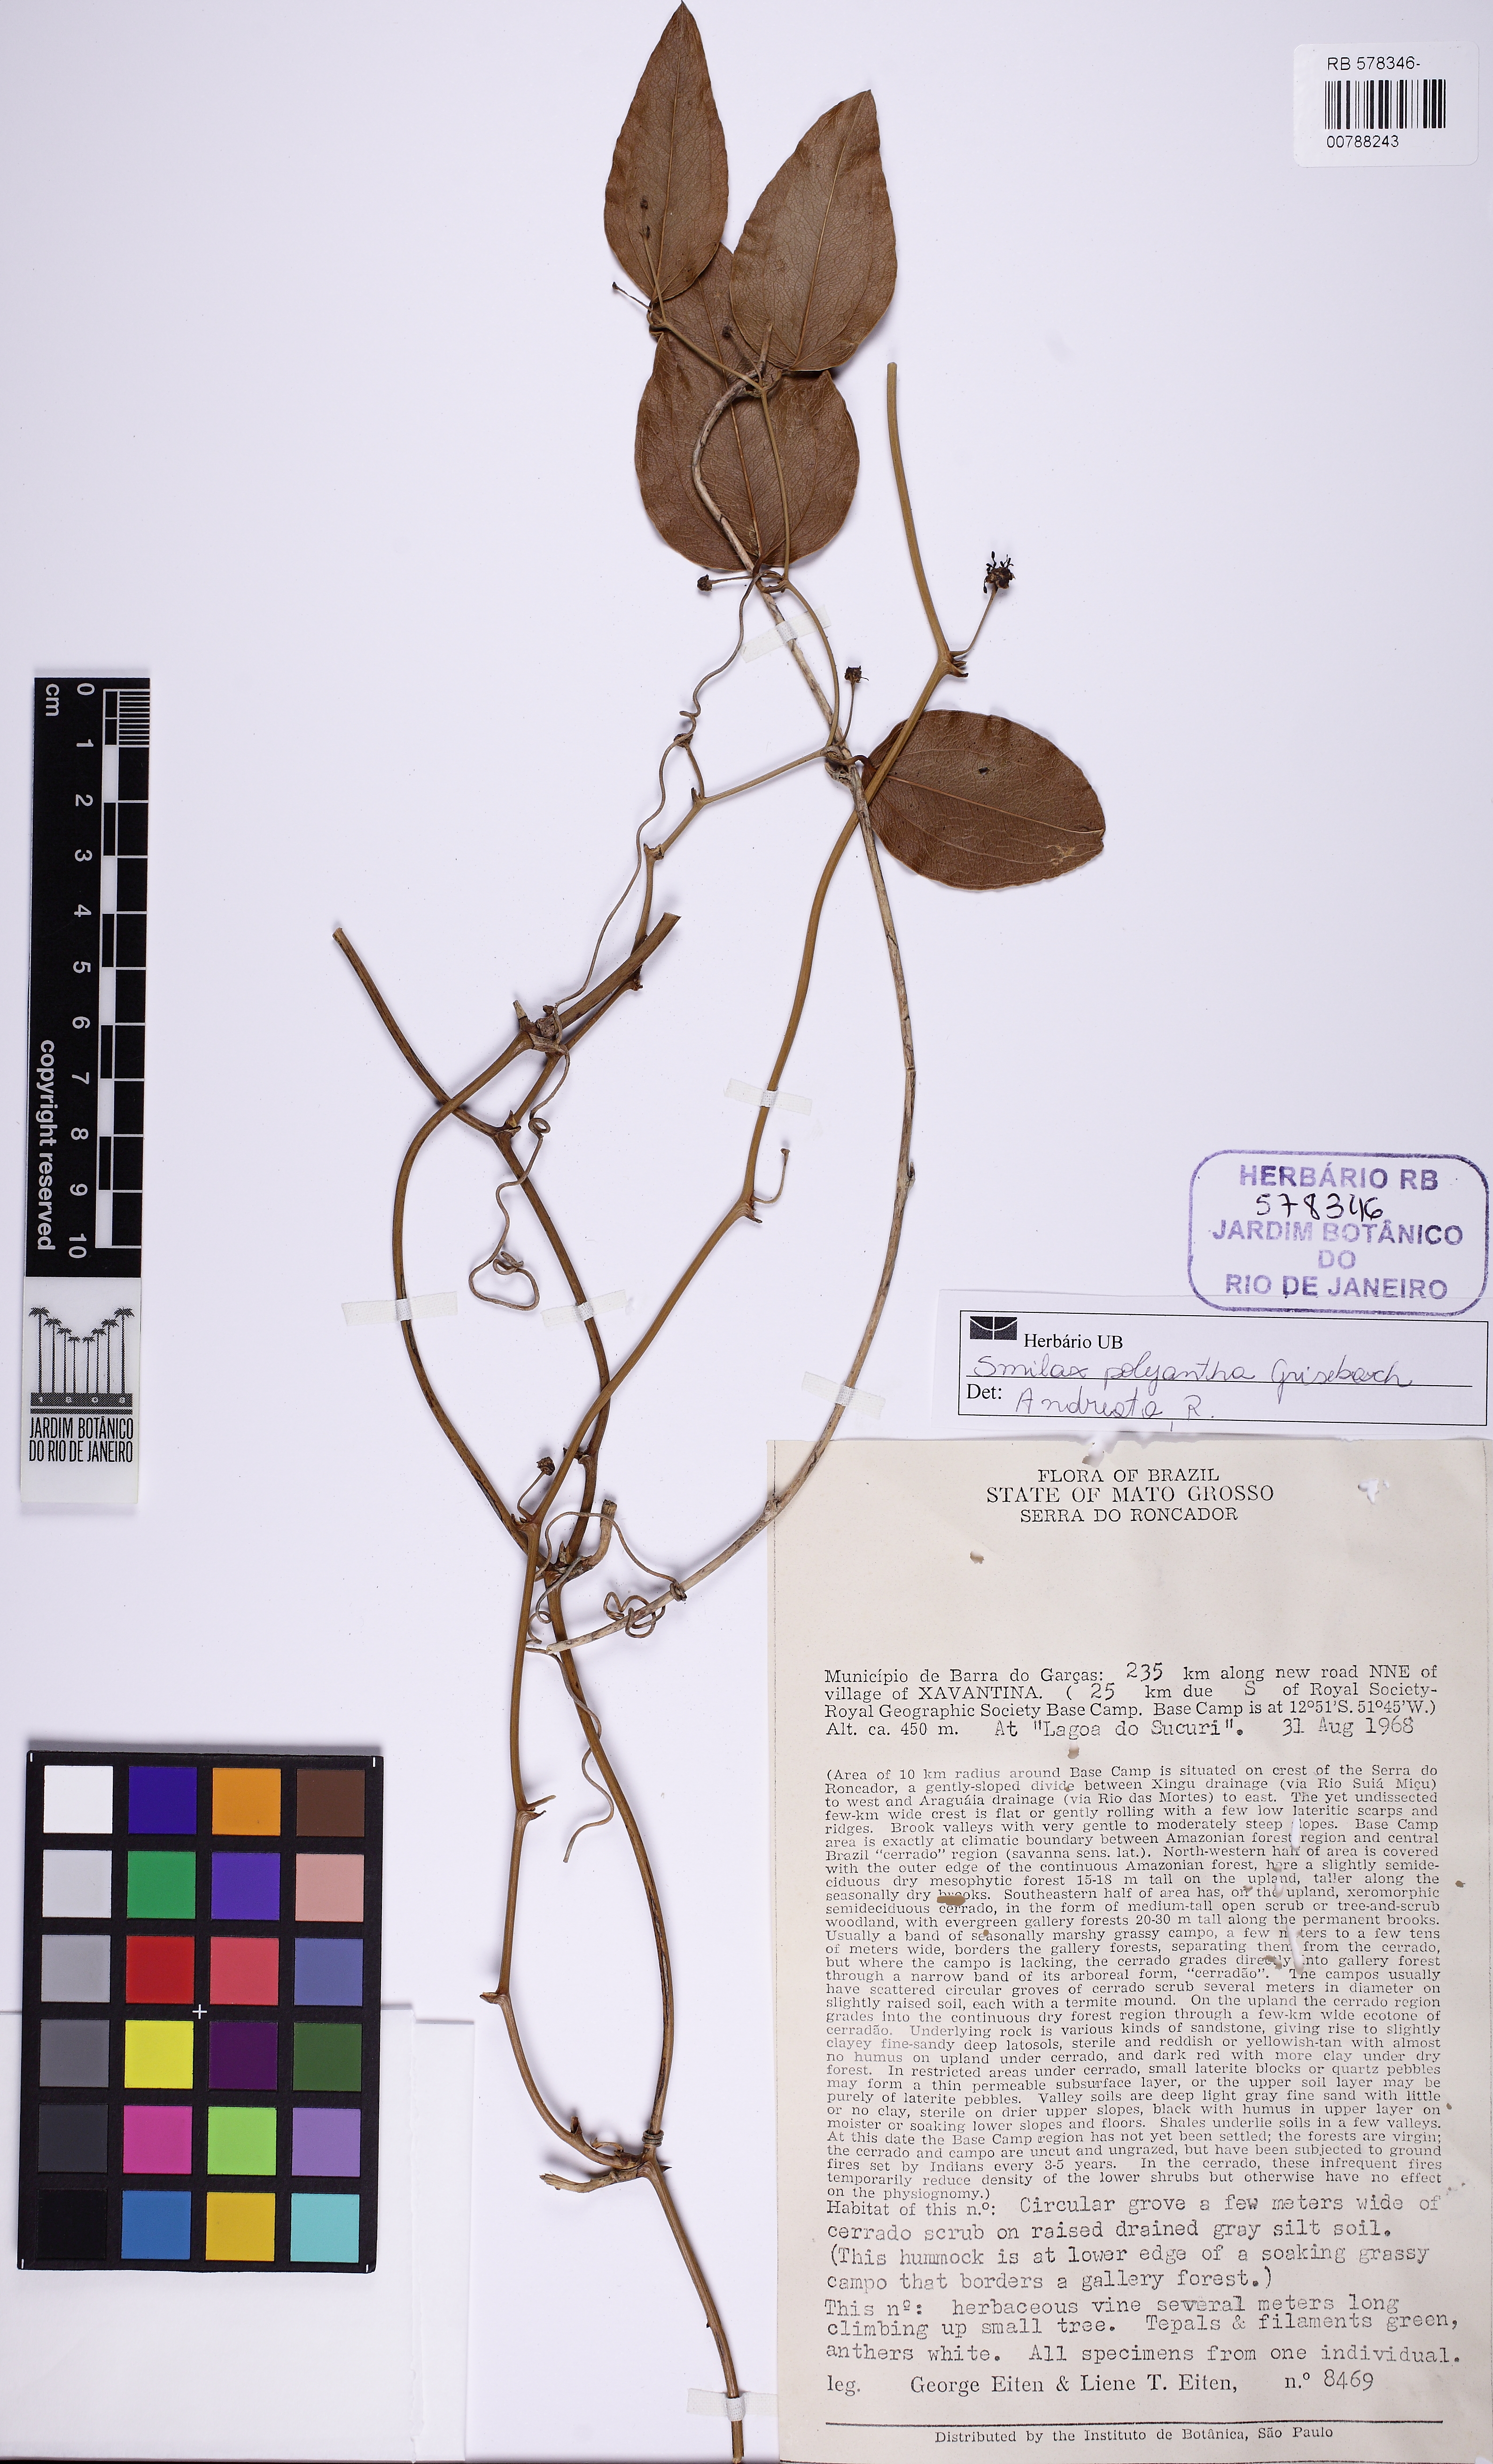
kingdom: Plantae
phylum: Tracheophyta
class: Liliopsida
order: Liliales
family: Smilacaceae
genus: Smilax
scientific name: Smilax polyantha
